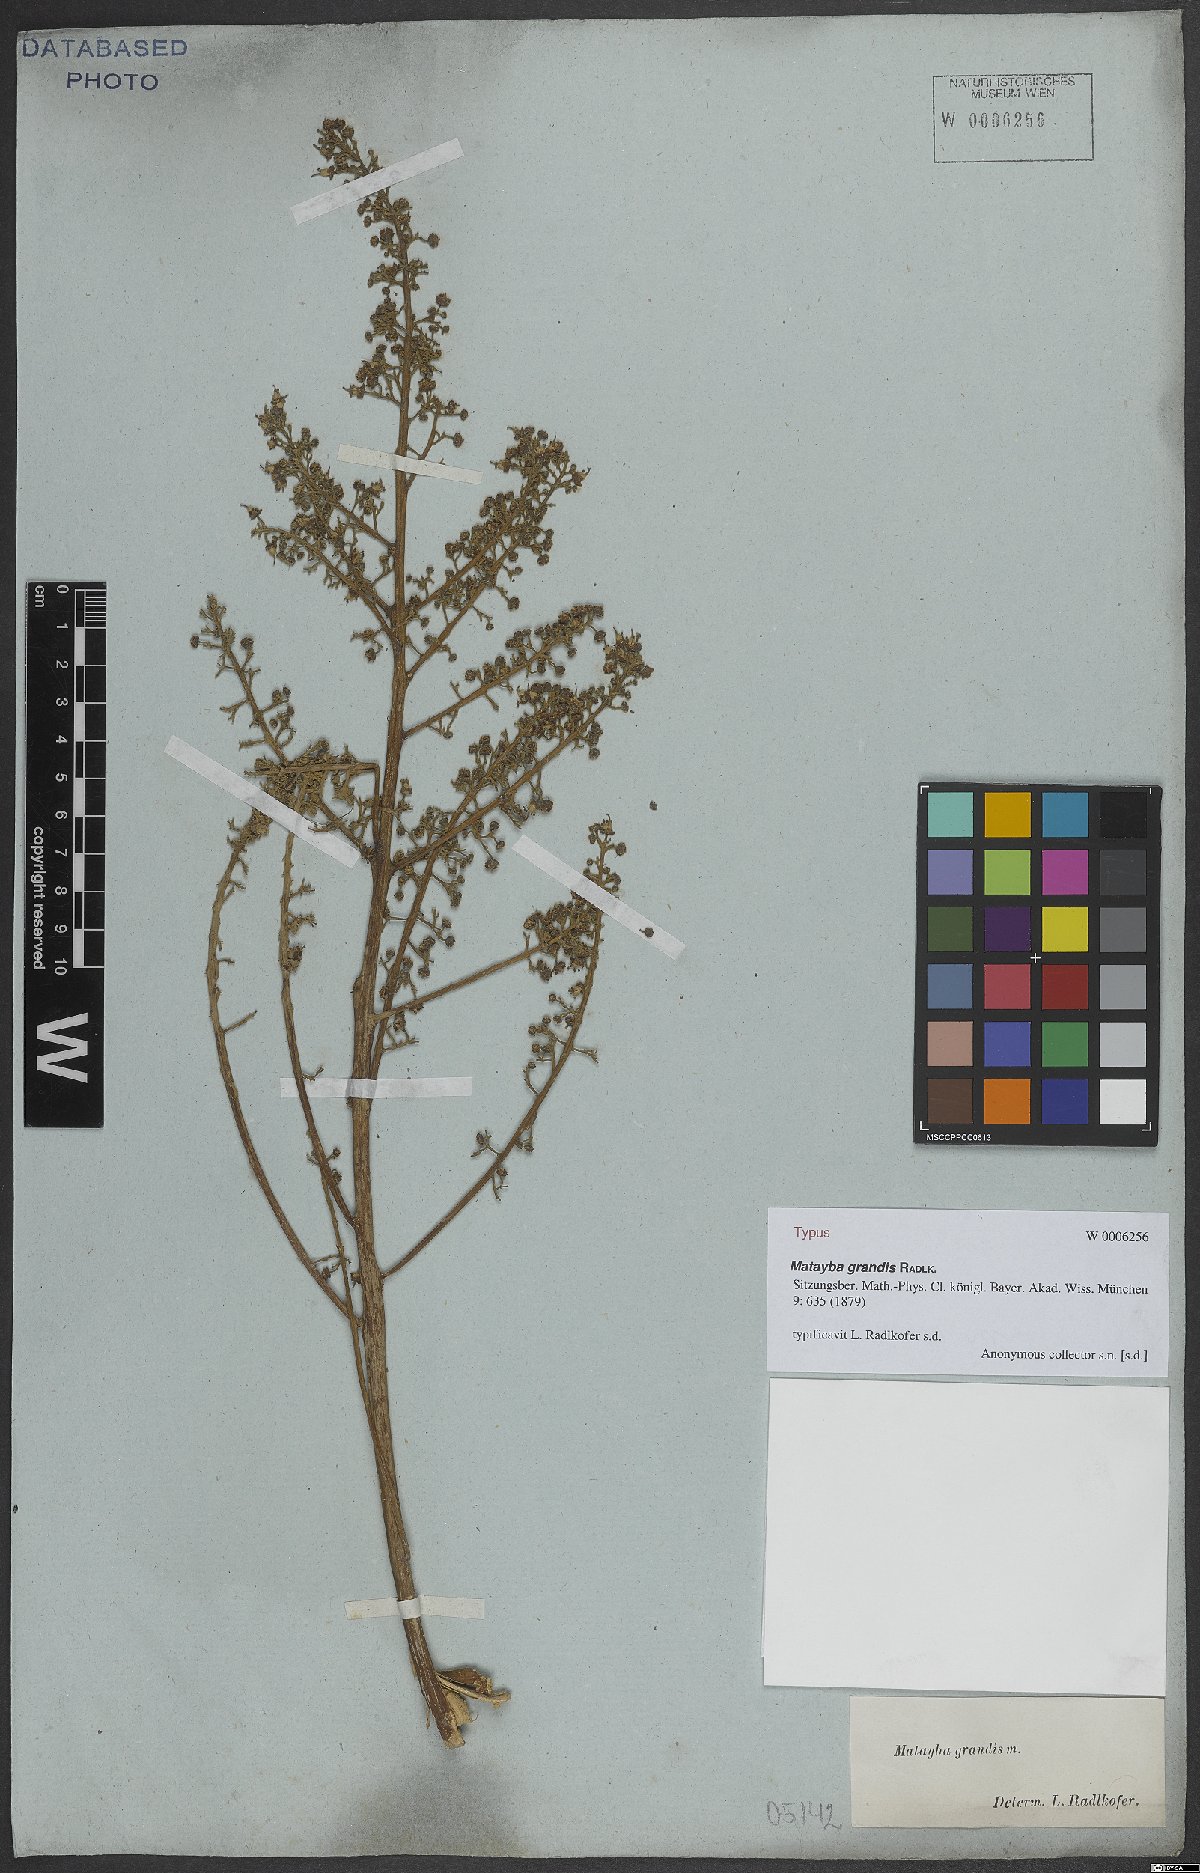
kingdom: Plantae
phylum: Tracheophyta
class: Magnoliopsida
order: Sapindales
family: Sapindaceae
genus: Matayba
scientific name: Matayba grandis
